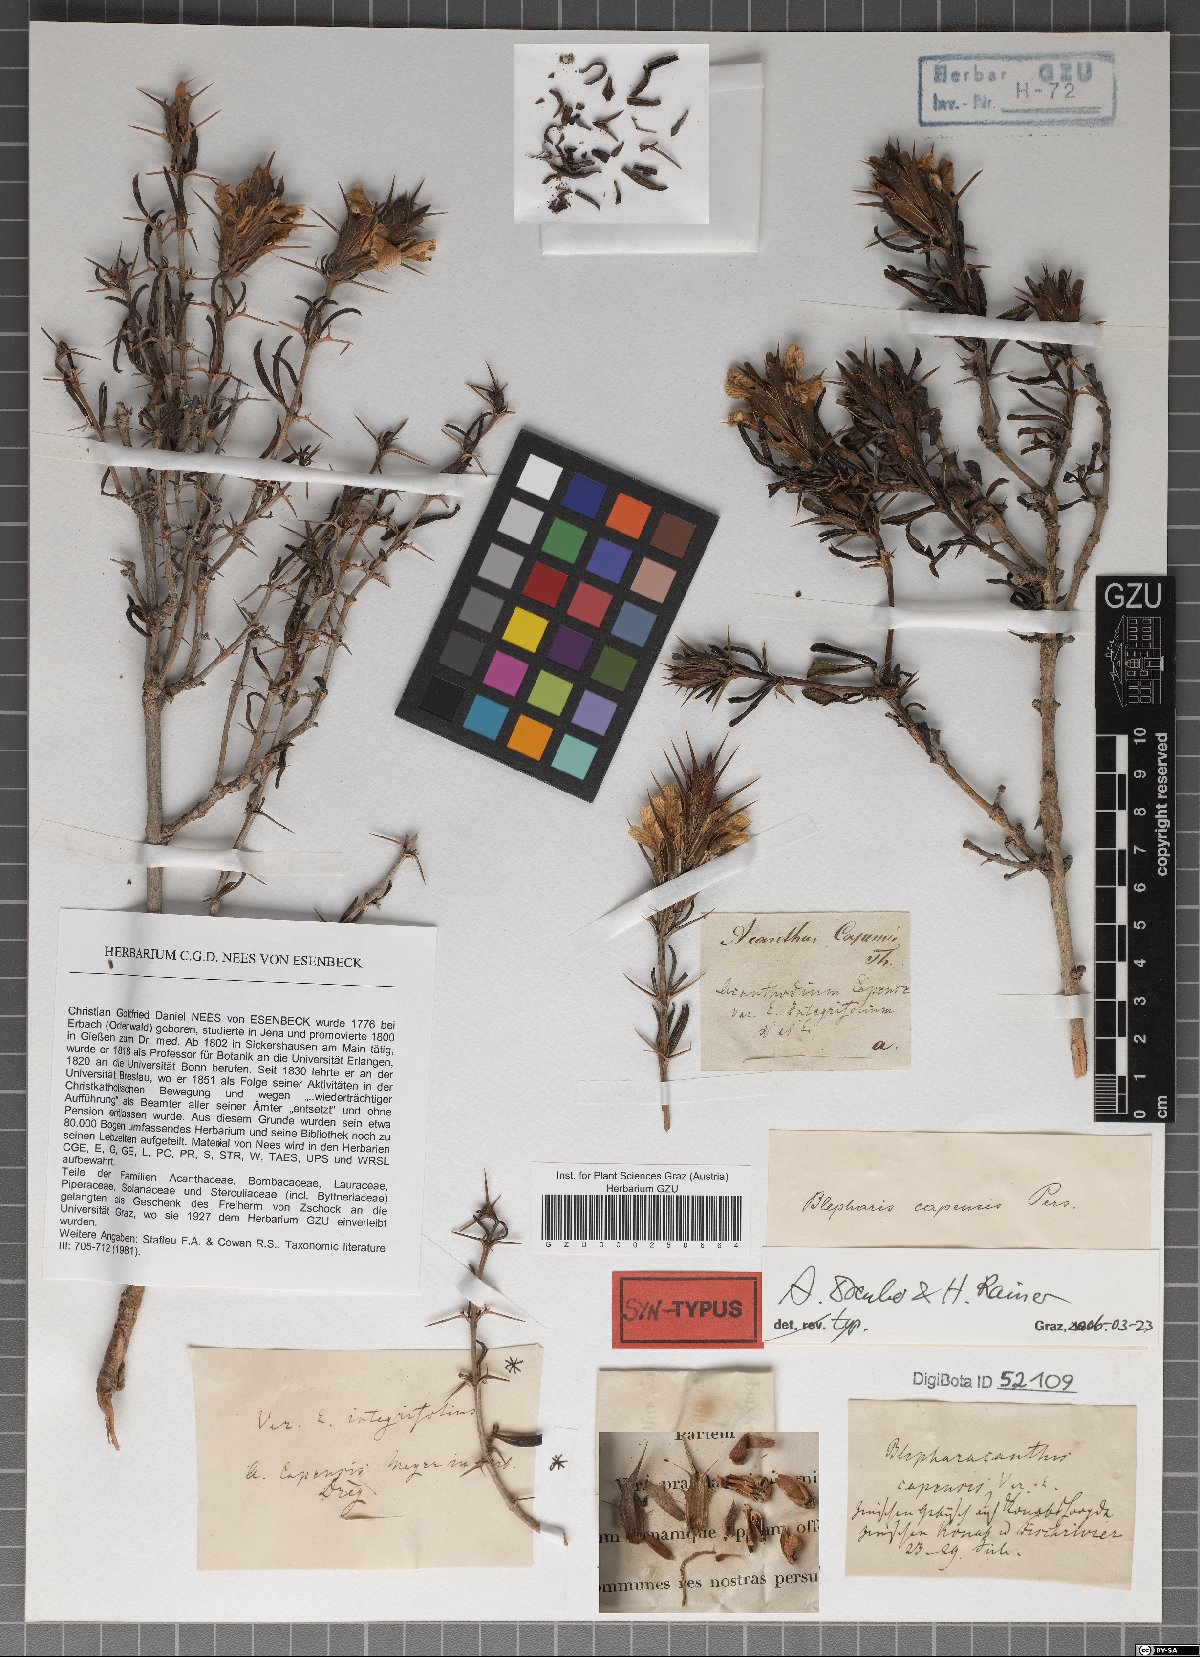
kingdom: Plantae
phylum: Tracheophyta
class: Magnoliopsida
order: Lamiales
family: Acanthaceae
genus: Blepharis
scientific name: Blepharis capensis
